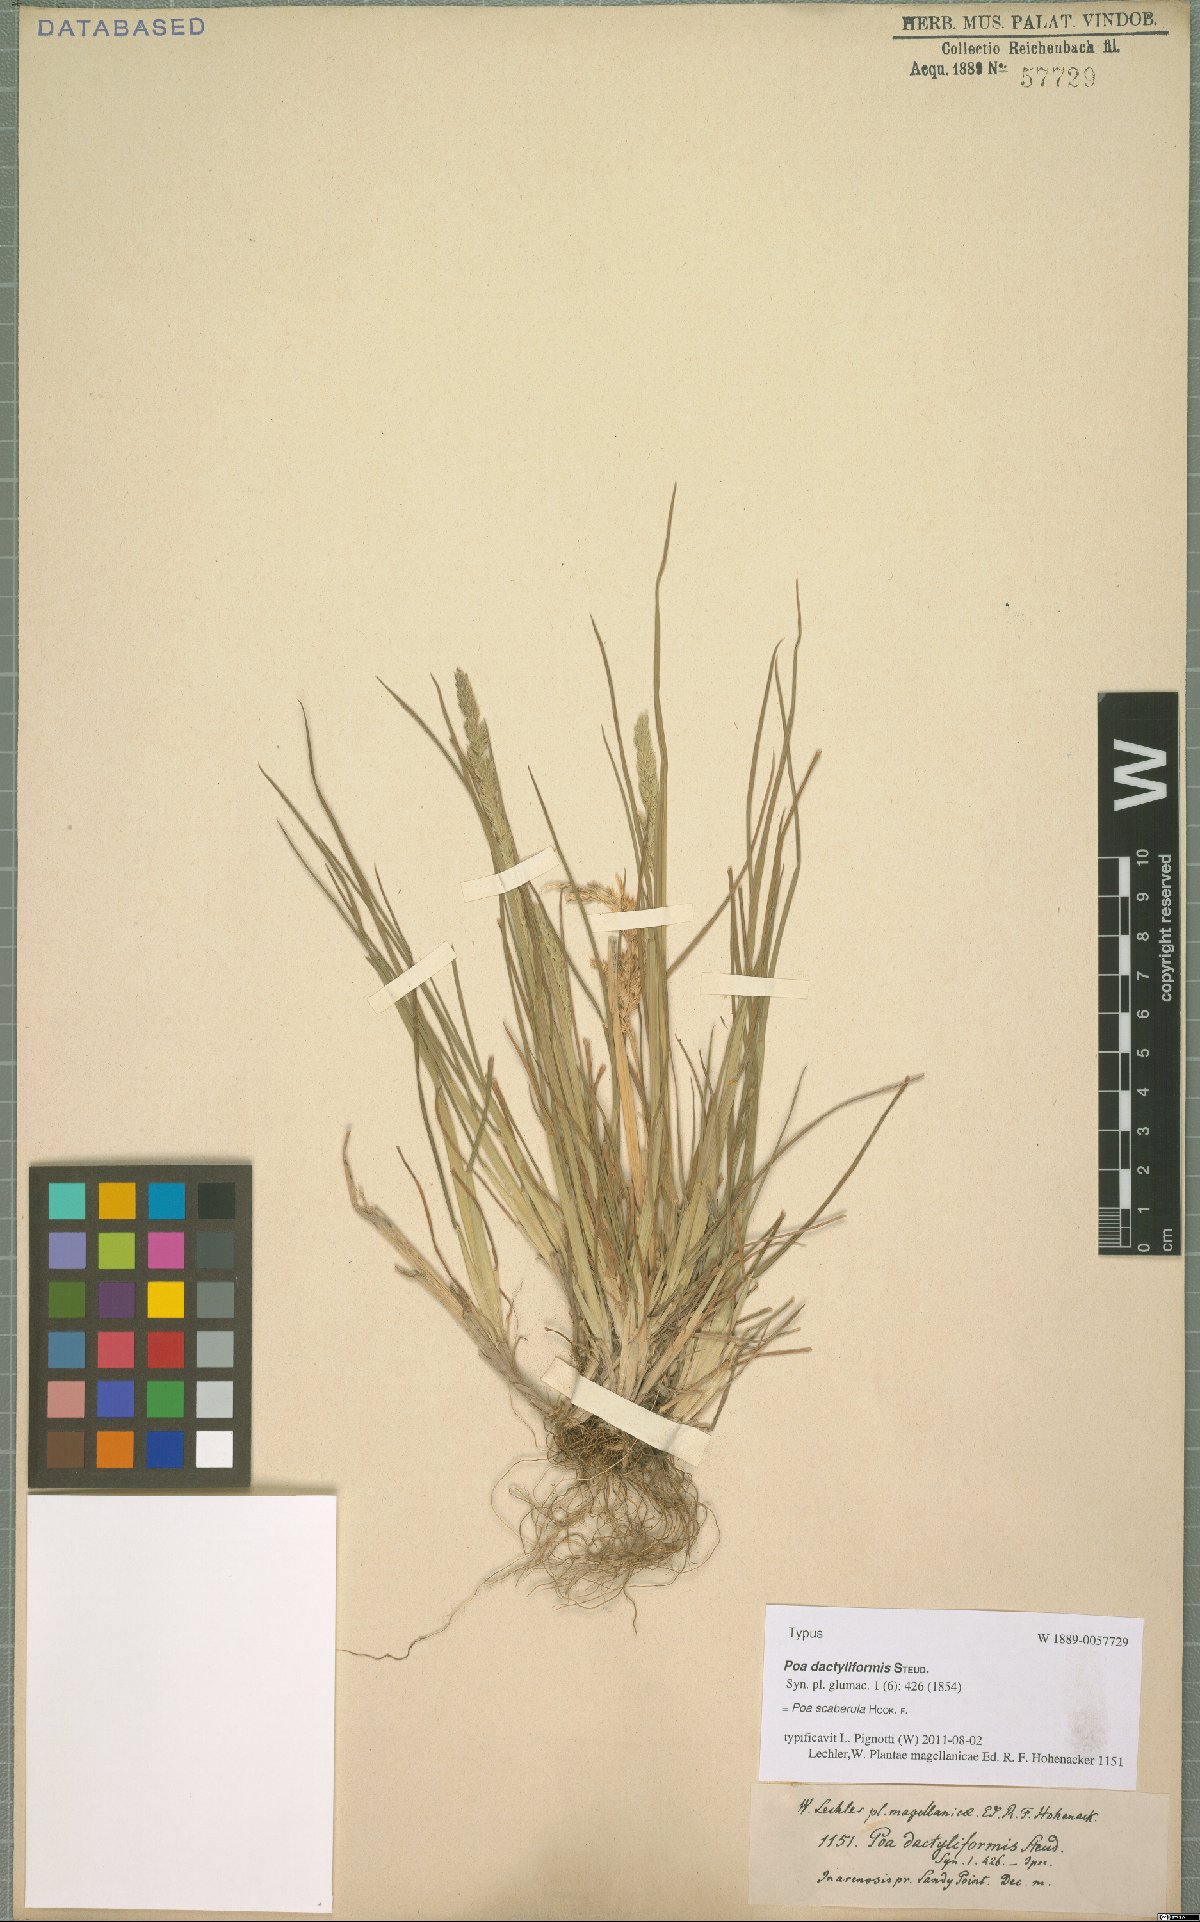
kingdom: Plantae
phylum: Tracheophyta
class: Liliopsida
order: Poales
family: Poaceae
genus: Poa
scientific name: Poa scaberula
